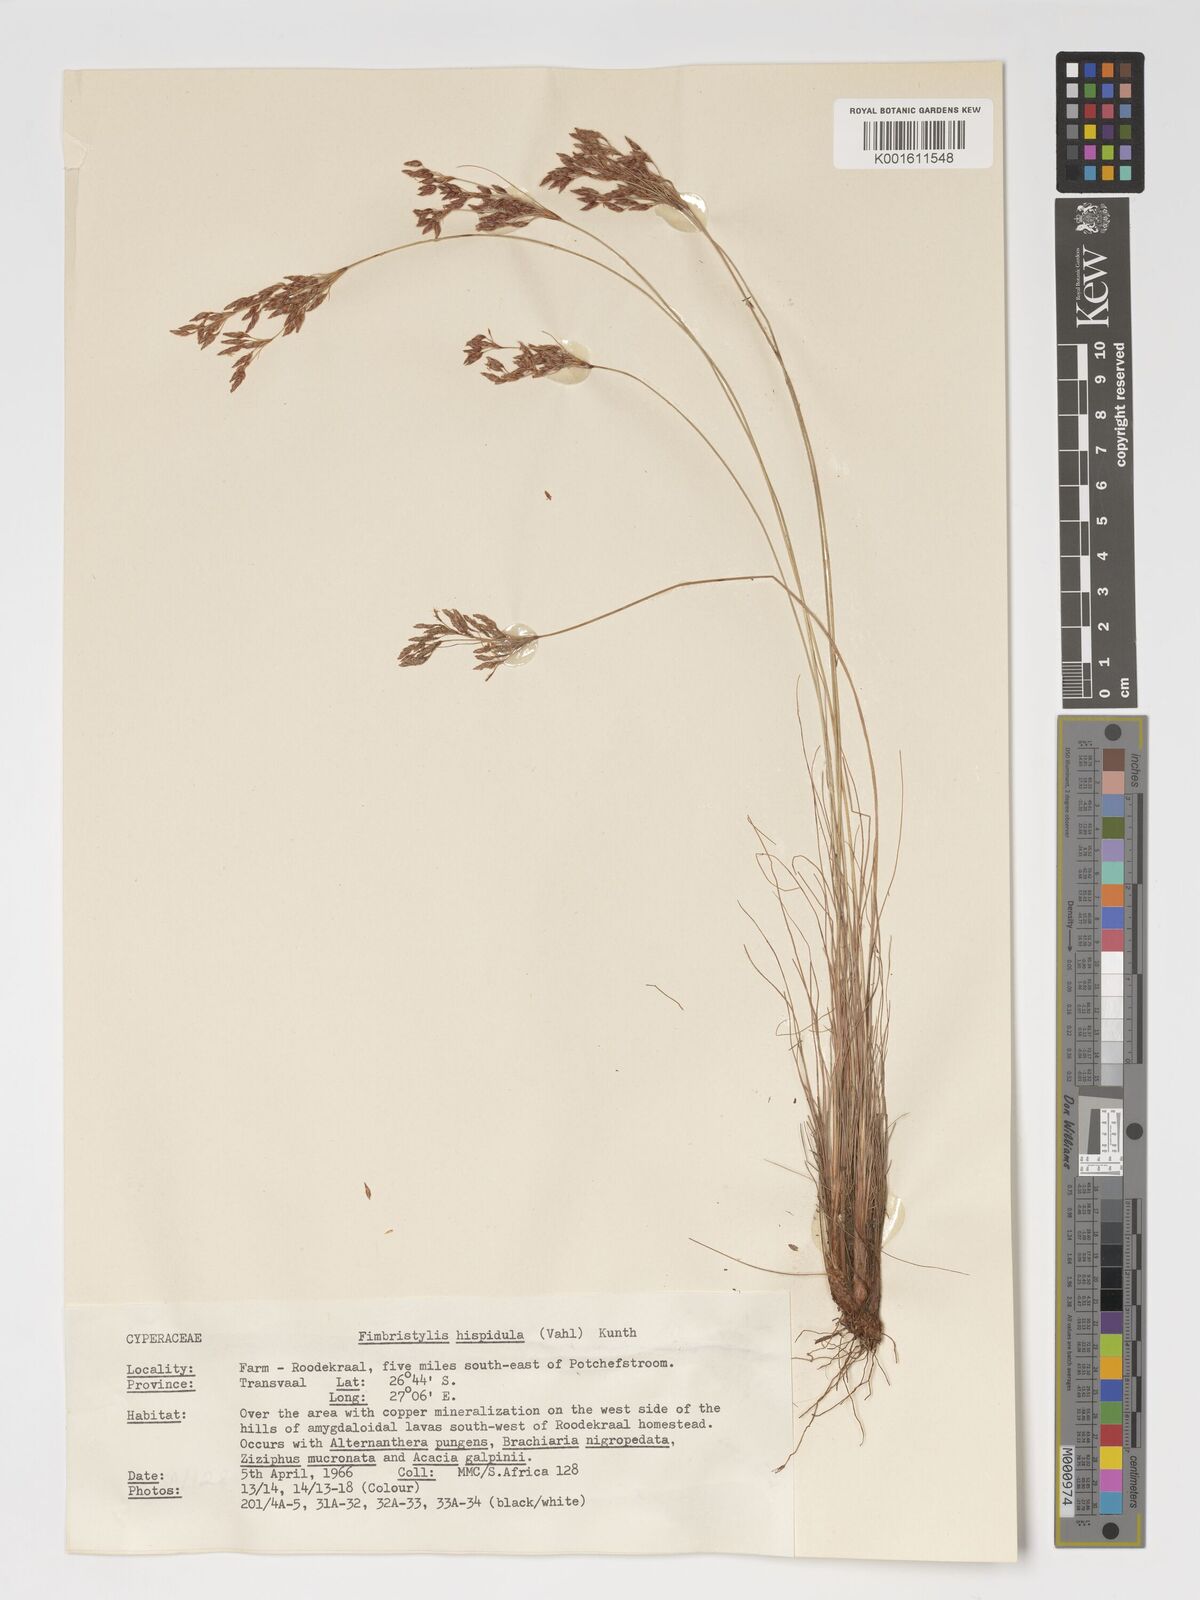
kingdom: Plantae
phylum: Tracheophyta
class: Liliopsida
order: Poales
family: Cyperaceae
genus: Bulbostylis
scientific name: Bulbostylis hispidula
